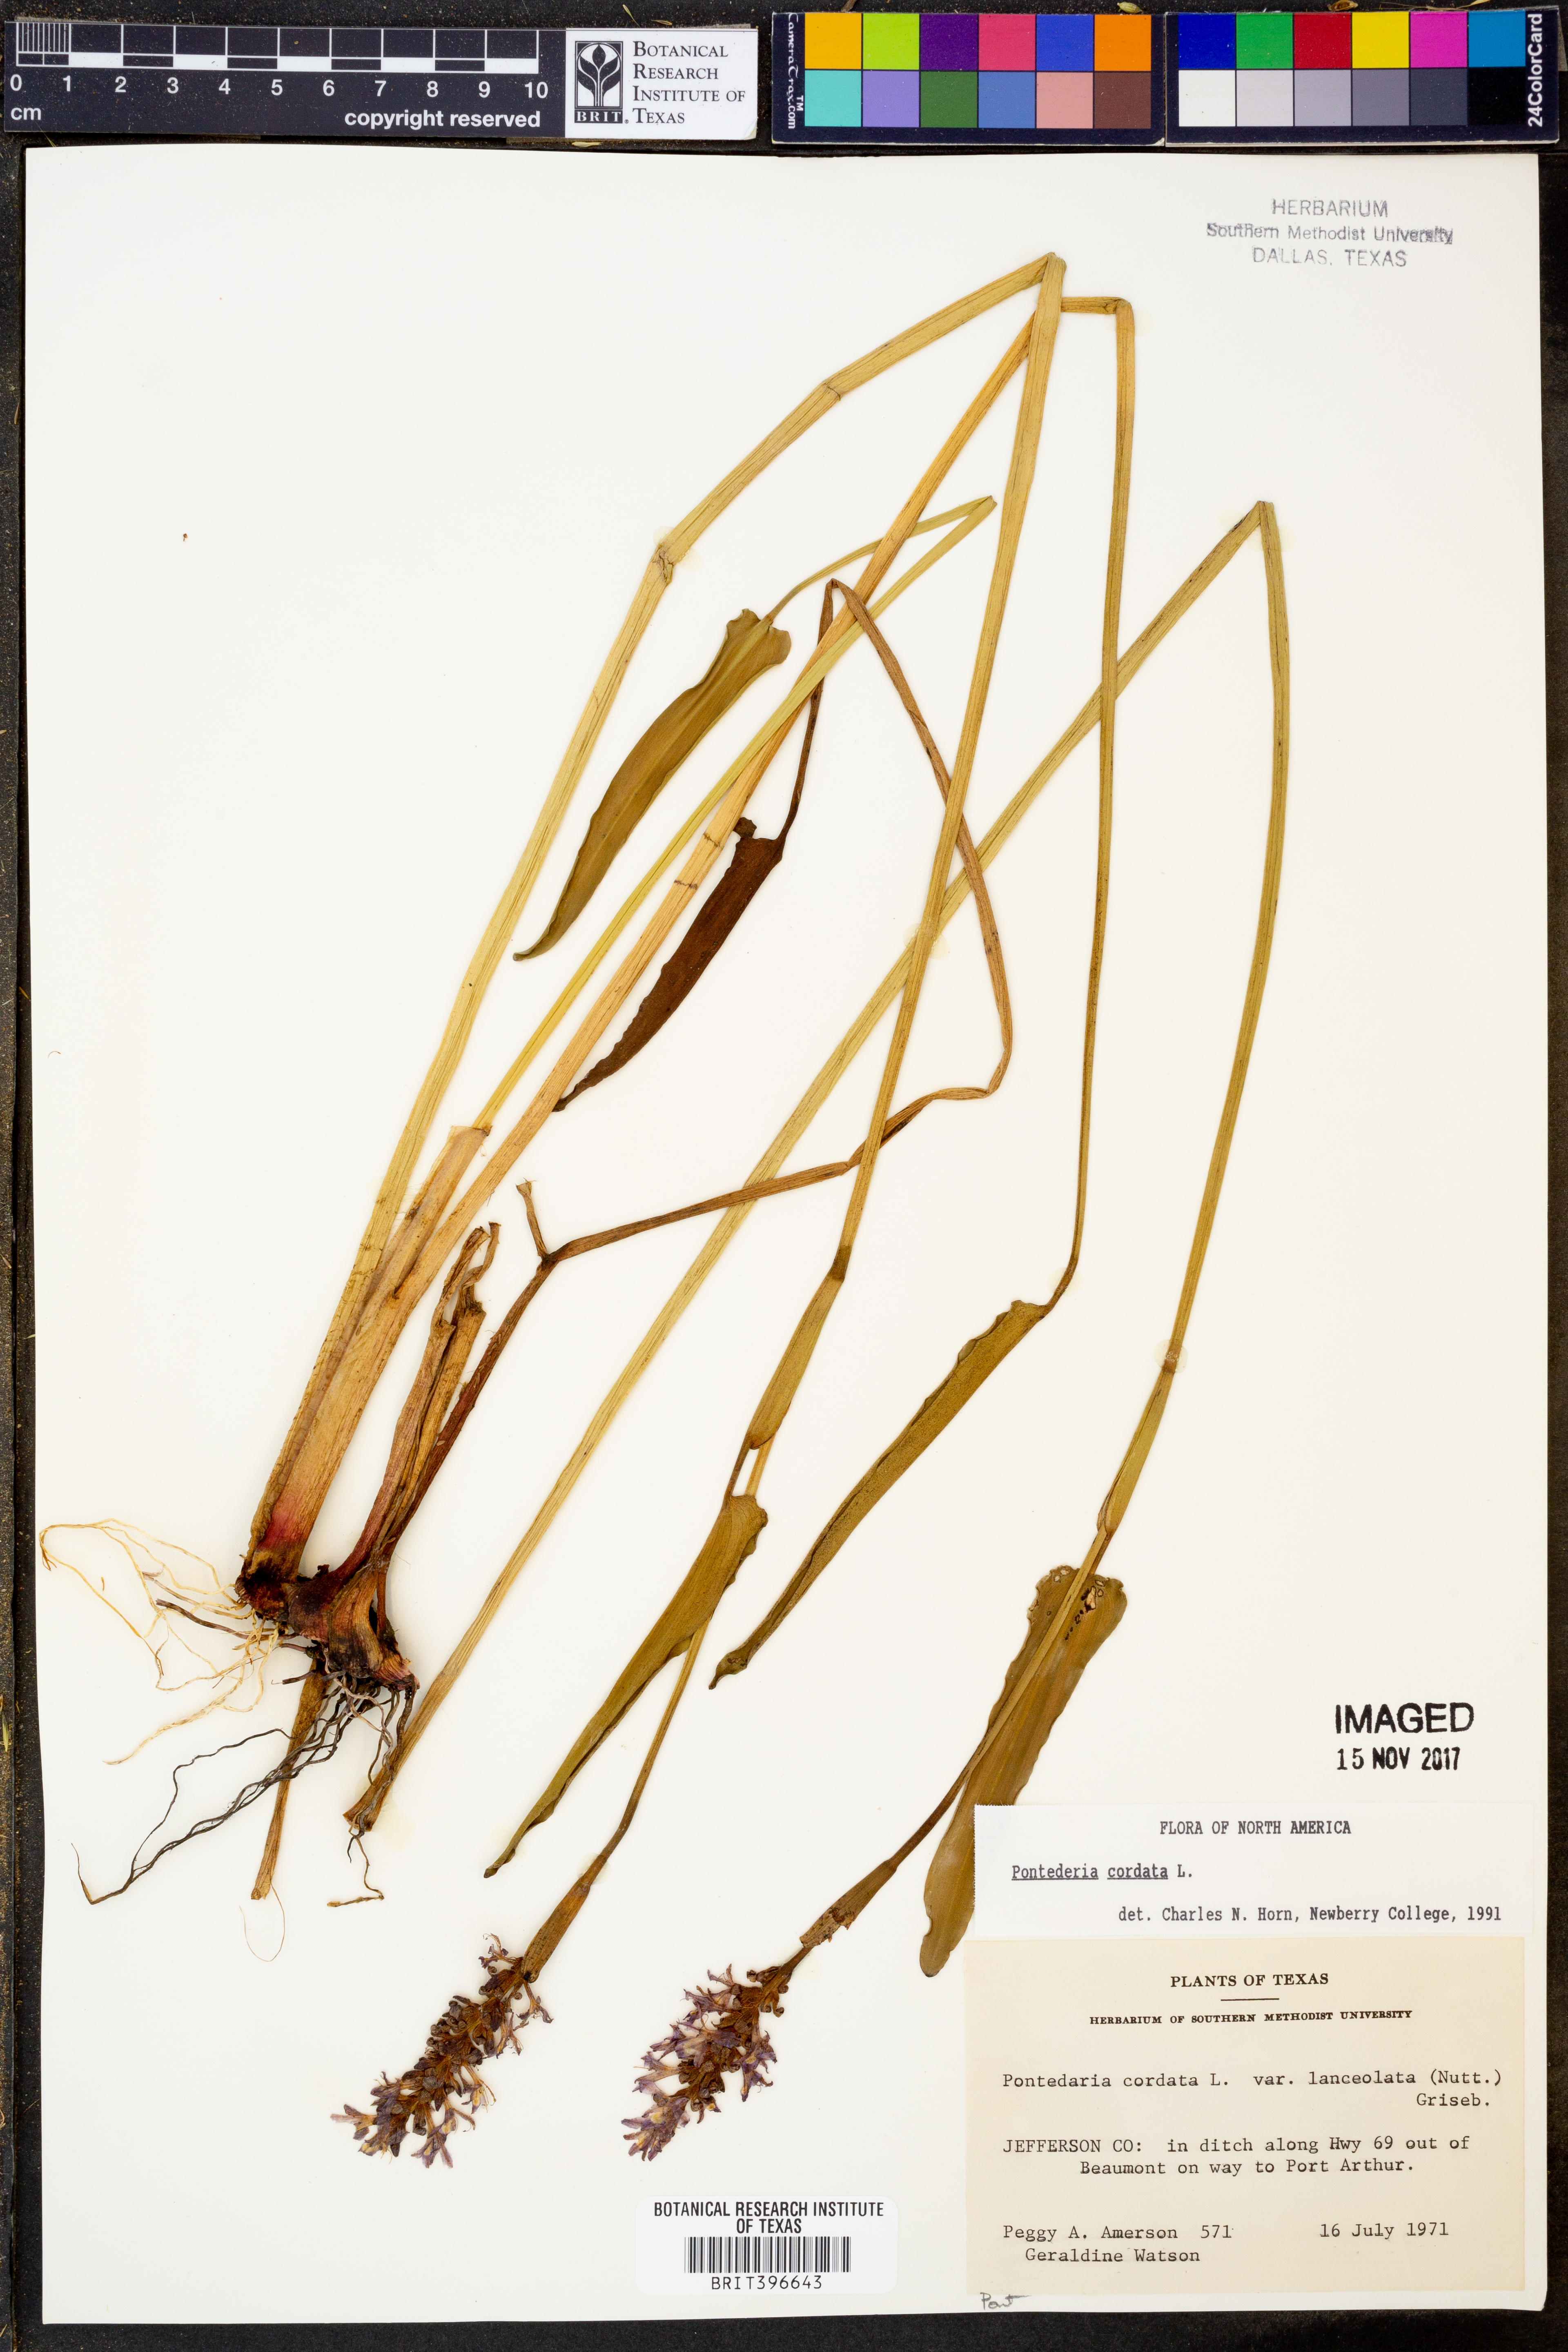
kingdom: Plantae
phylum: Tracheophyta
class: Liliopsida
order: Commelinales
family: Pontederiaceae
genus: Pontederia
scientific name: Pontederia cordata
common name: Pickerelweed
